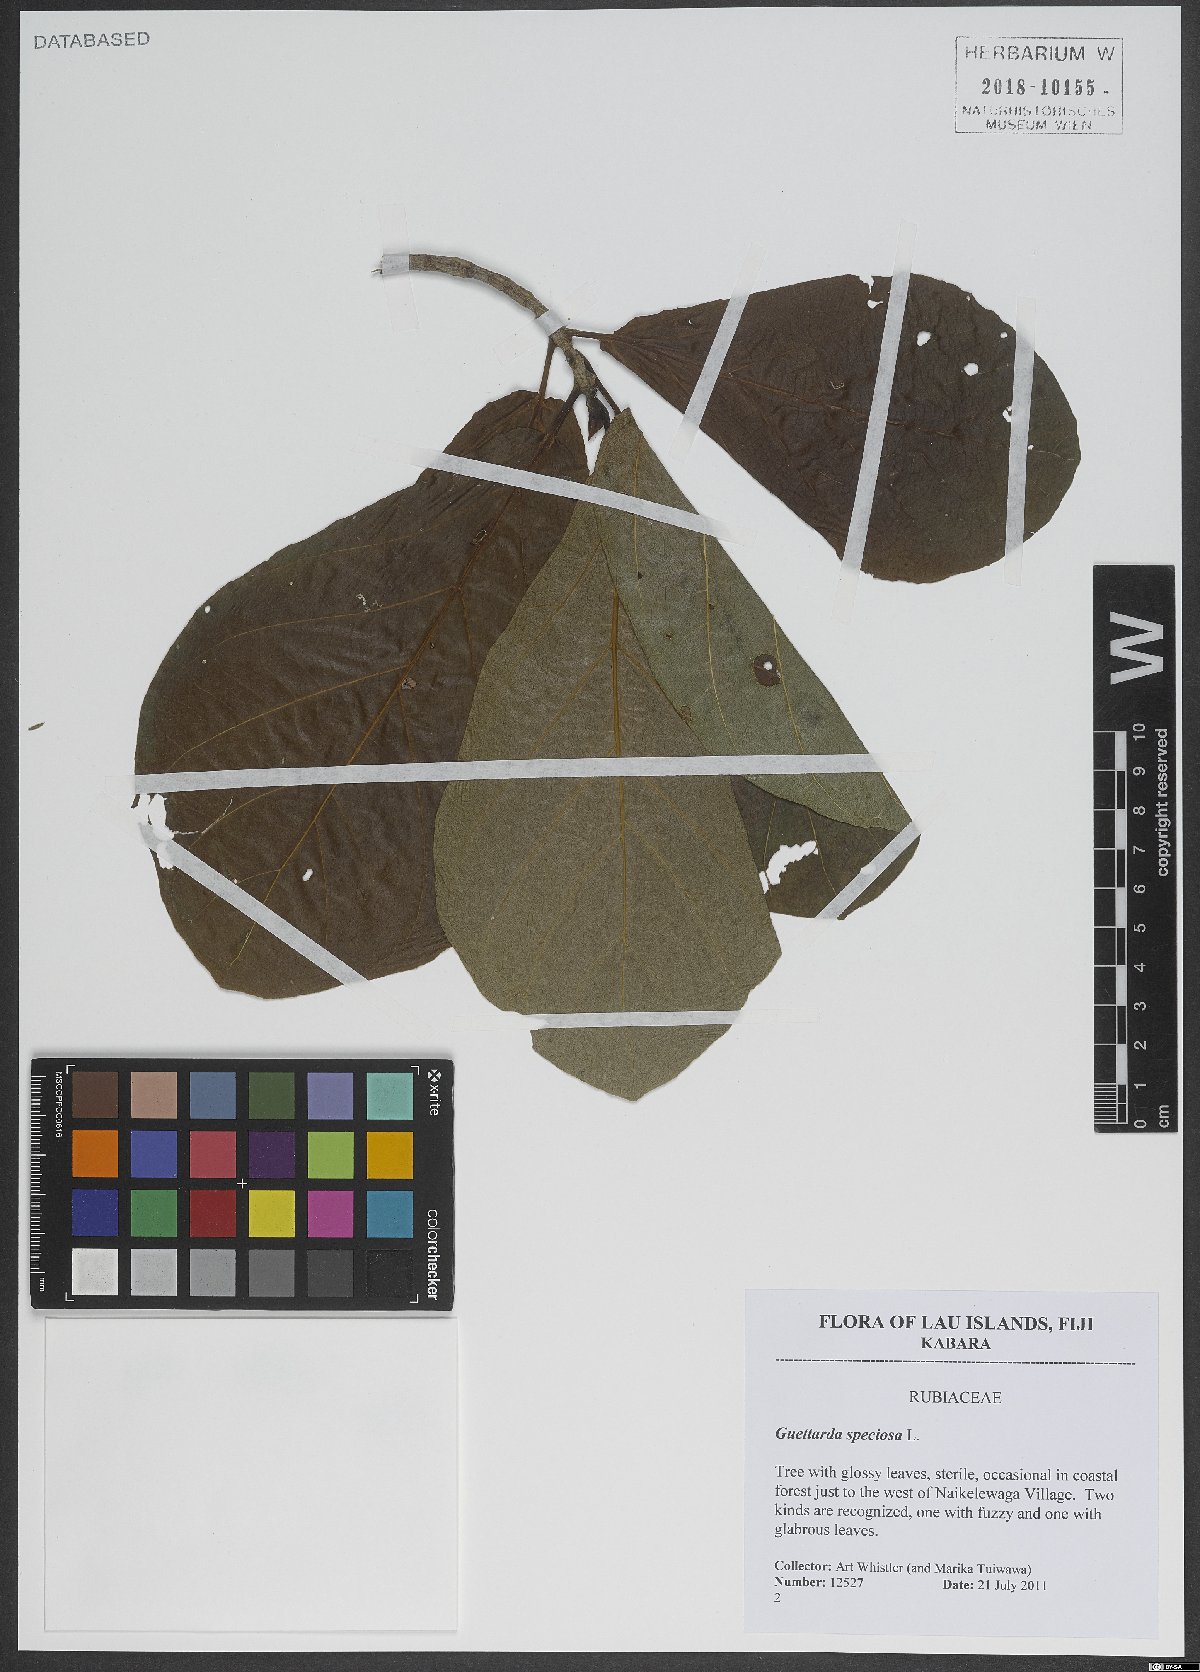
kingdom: Plantae
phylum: Tracheophyta
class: Magnoliopsida
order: Gentianales
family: Rubiaceae
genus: Guettarda
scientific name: Guettarda speciosa
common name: Sea randa
